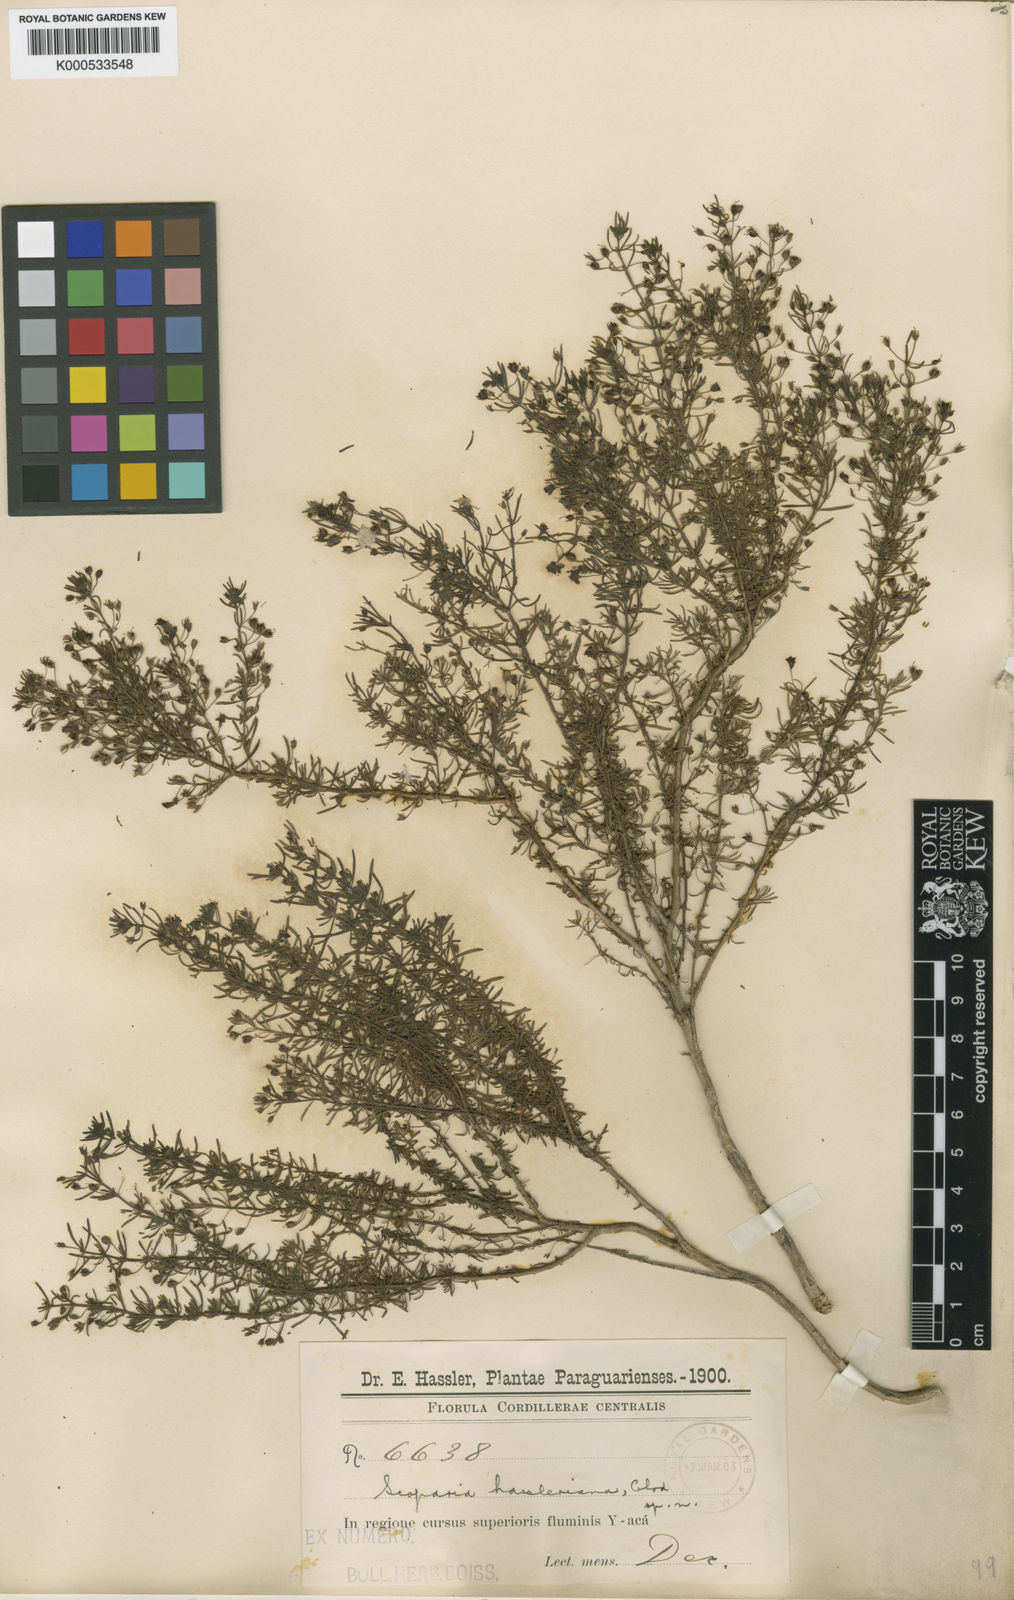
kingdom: Plantae
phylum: Tracheophyta
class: Magnoliopsida
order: Lamiales
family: Plantaginaceae
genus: Scoparia
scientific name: Scoparia hassleriana
